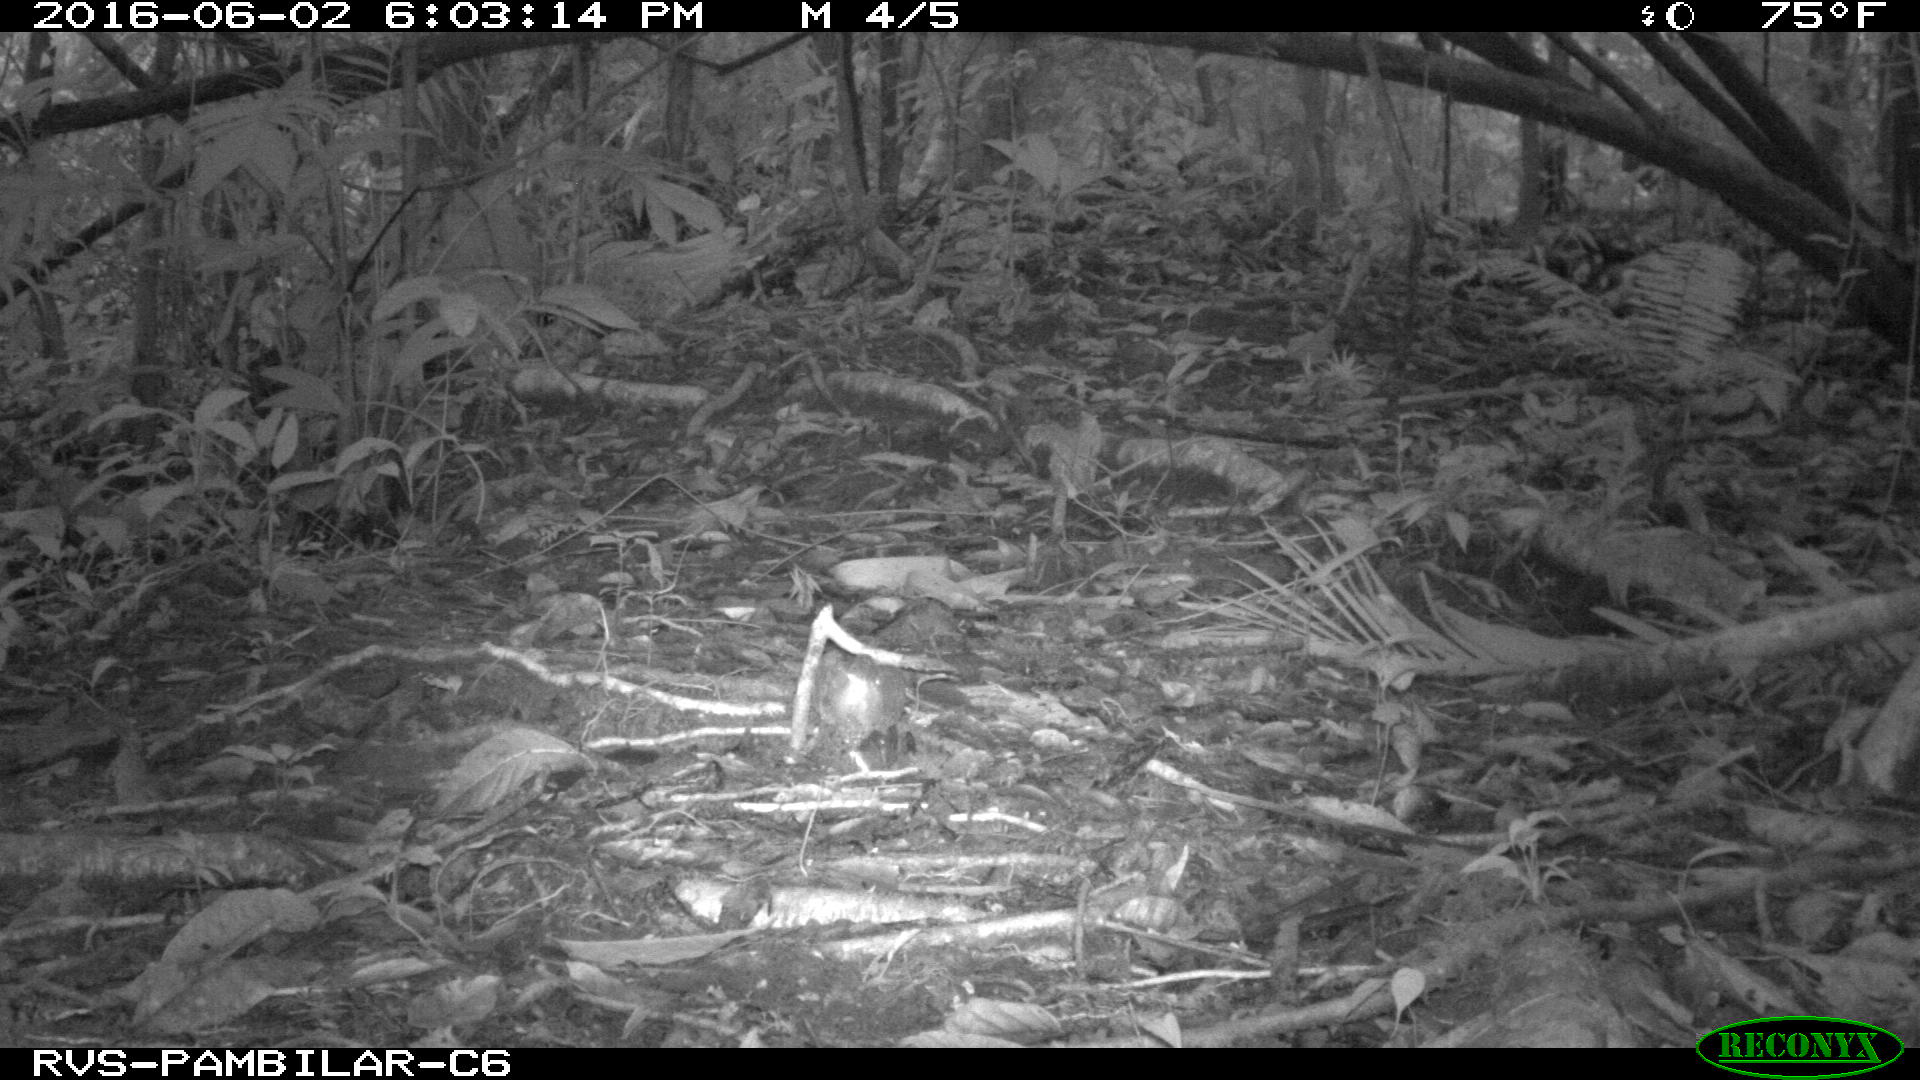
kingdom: Animalia
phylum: Chordata
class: Mammalia
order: Rodentia
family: Dasyproctidae
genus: Dasyprocta
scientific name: Dasyprocta punctata
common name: Central american agouti
